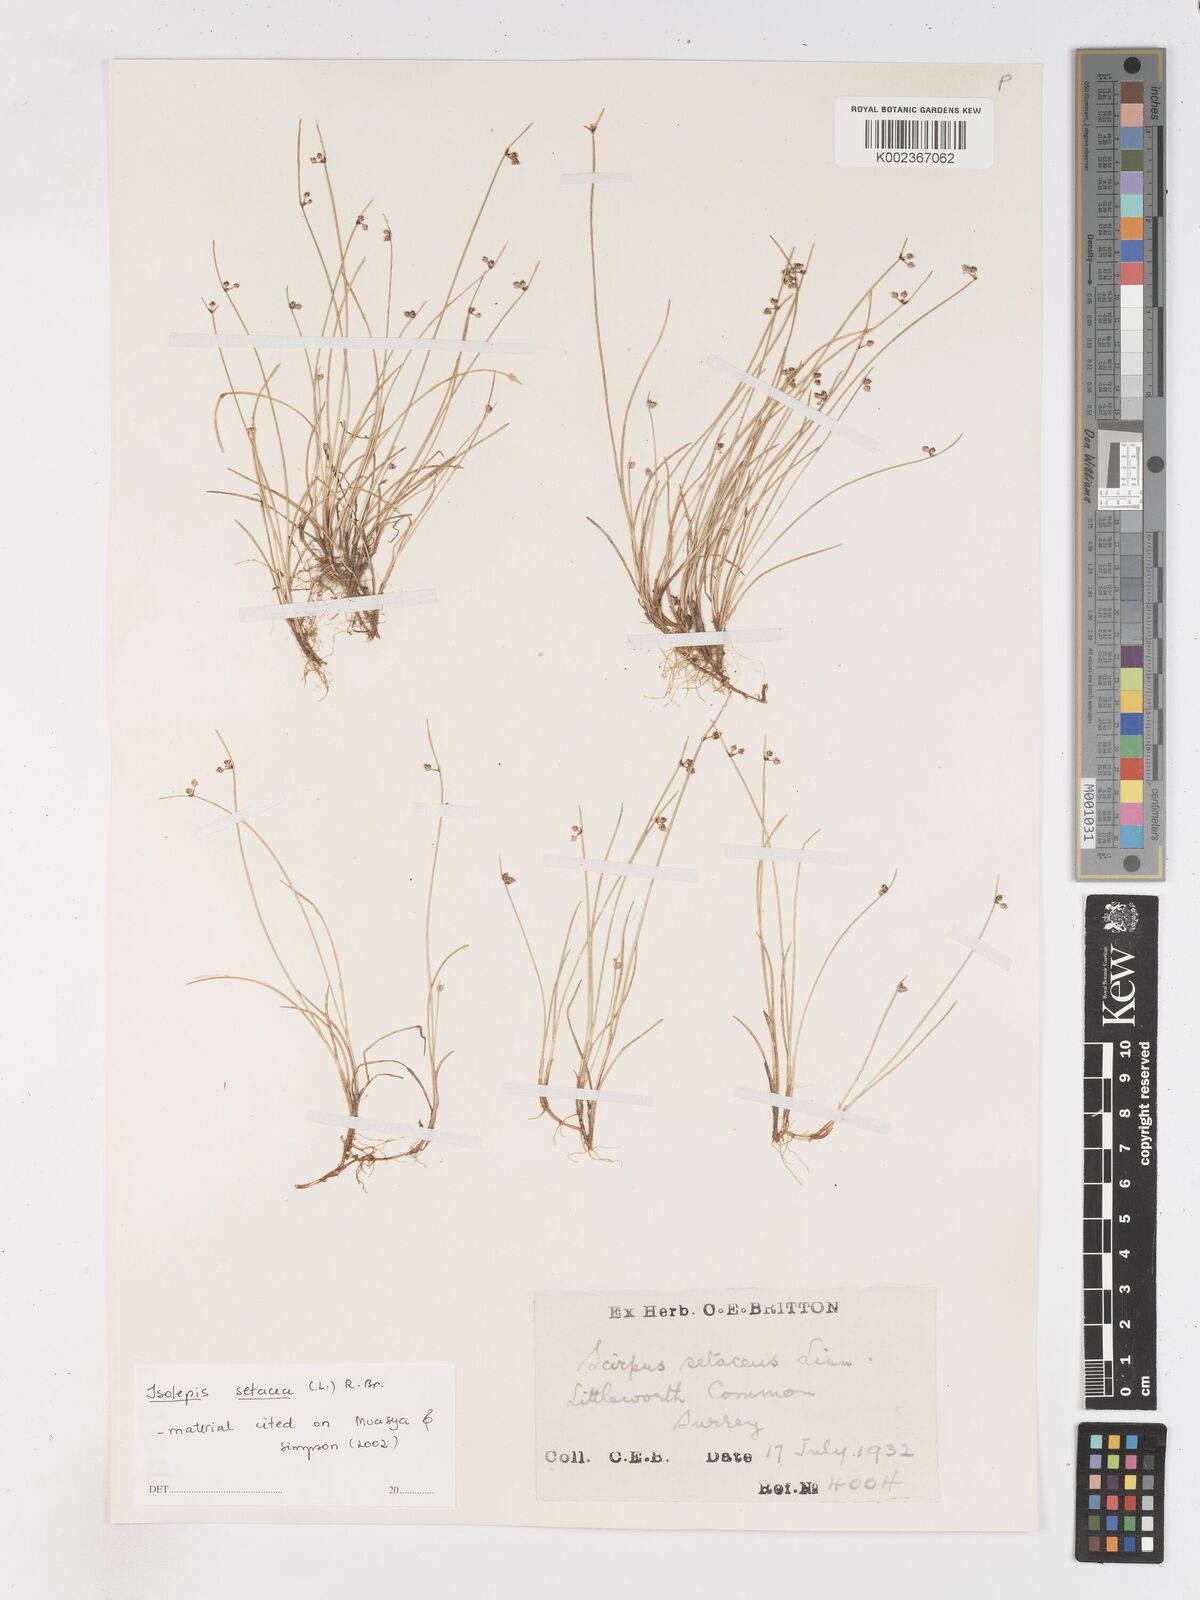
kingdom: Plantae
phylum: Tracheophyta
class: Liliopsida
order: Poales
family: Cyperaceae
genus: Isolepis
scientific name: Isolepis setacea
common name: Bristle club-rush
